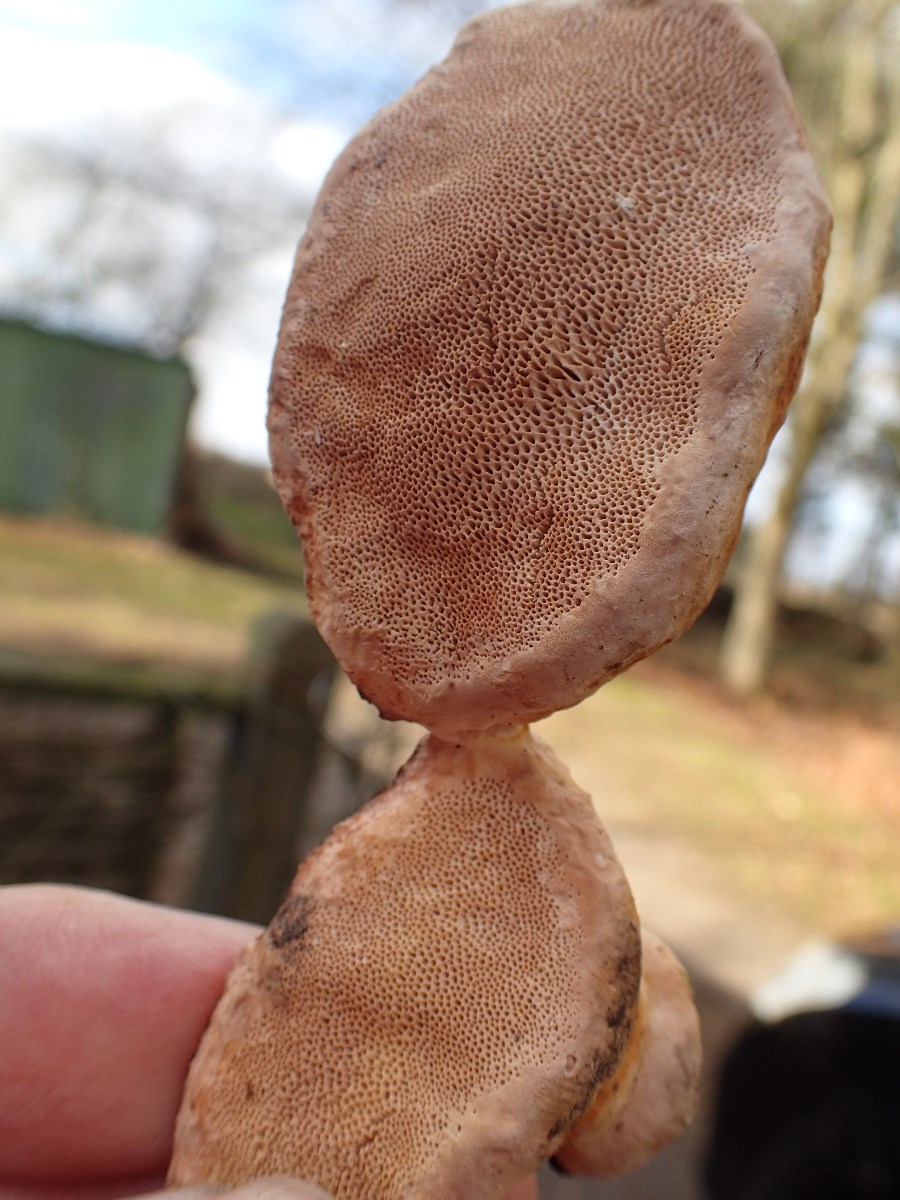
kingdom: Fungi
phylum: Basidiomycota
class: Agaricomycetes
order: Hymenochaetales
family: Hymenochaetaceae
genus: Phellinus
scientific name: Phellinus pomaceus
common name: blomme-ildporesvamp
